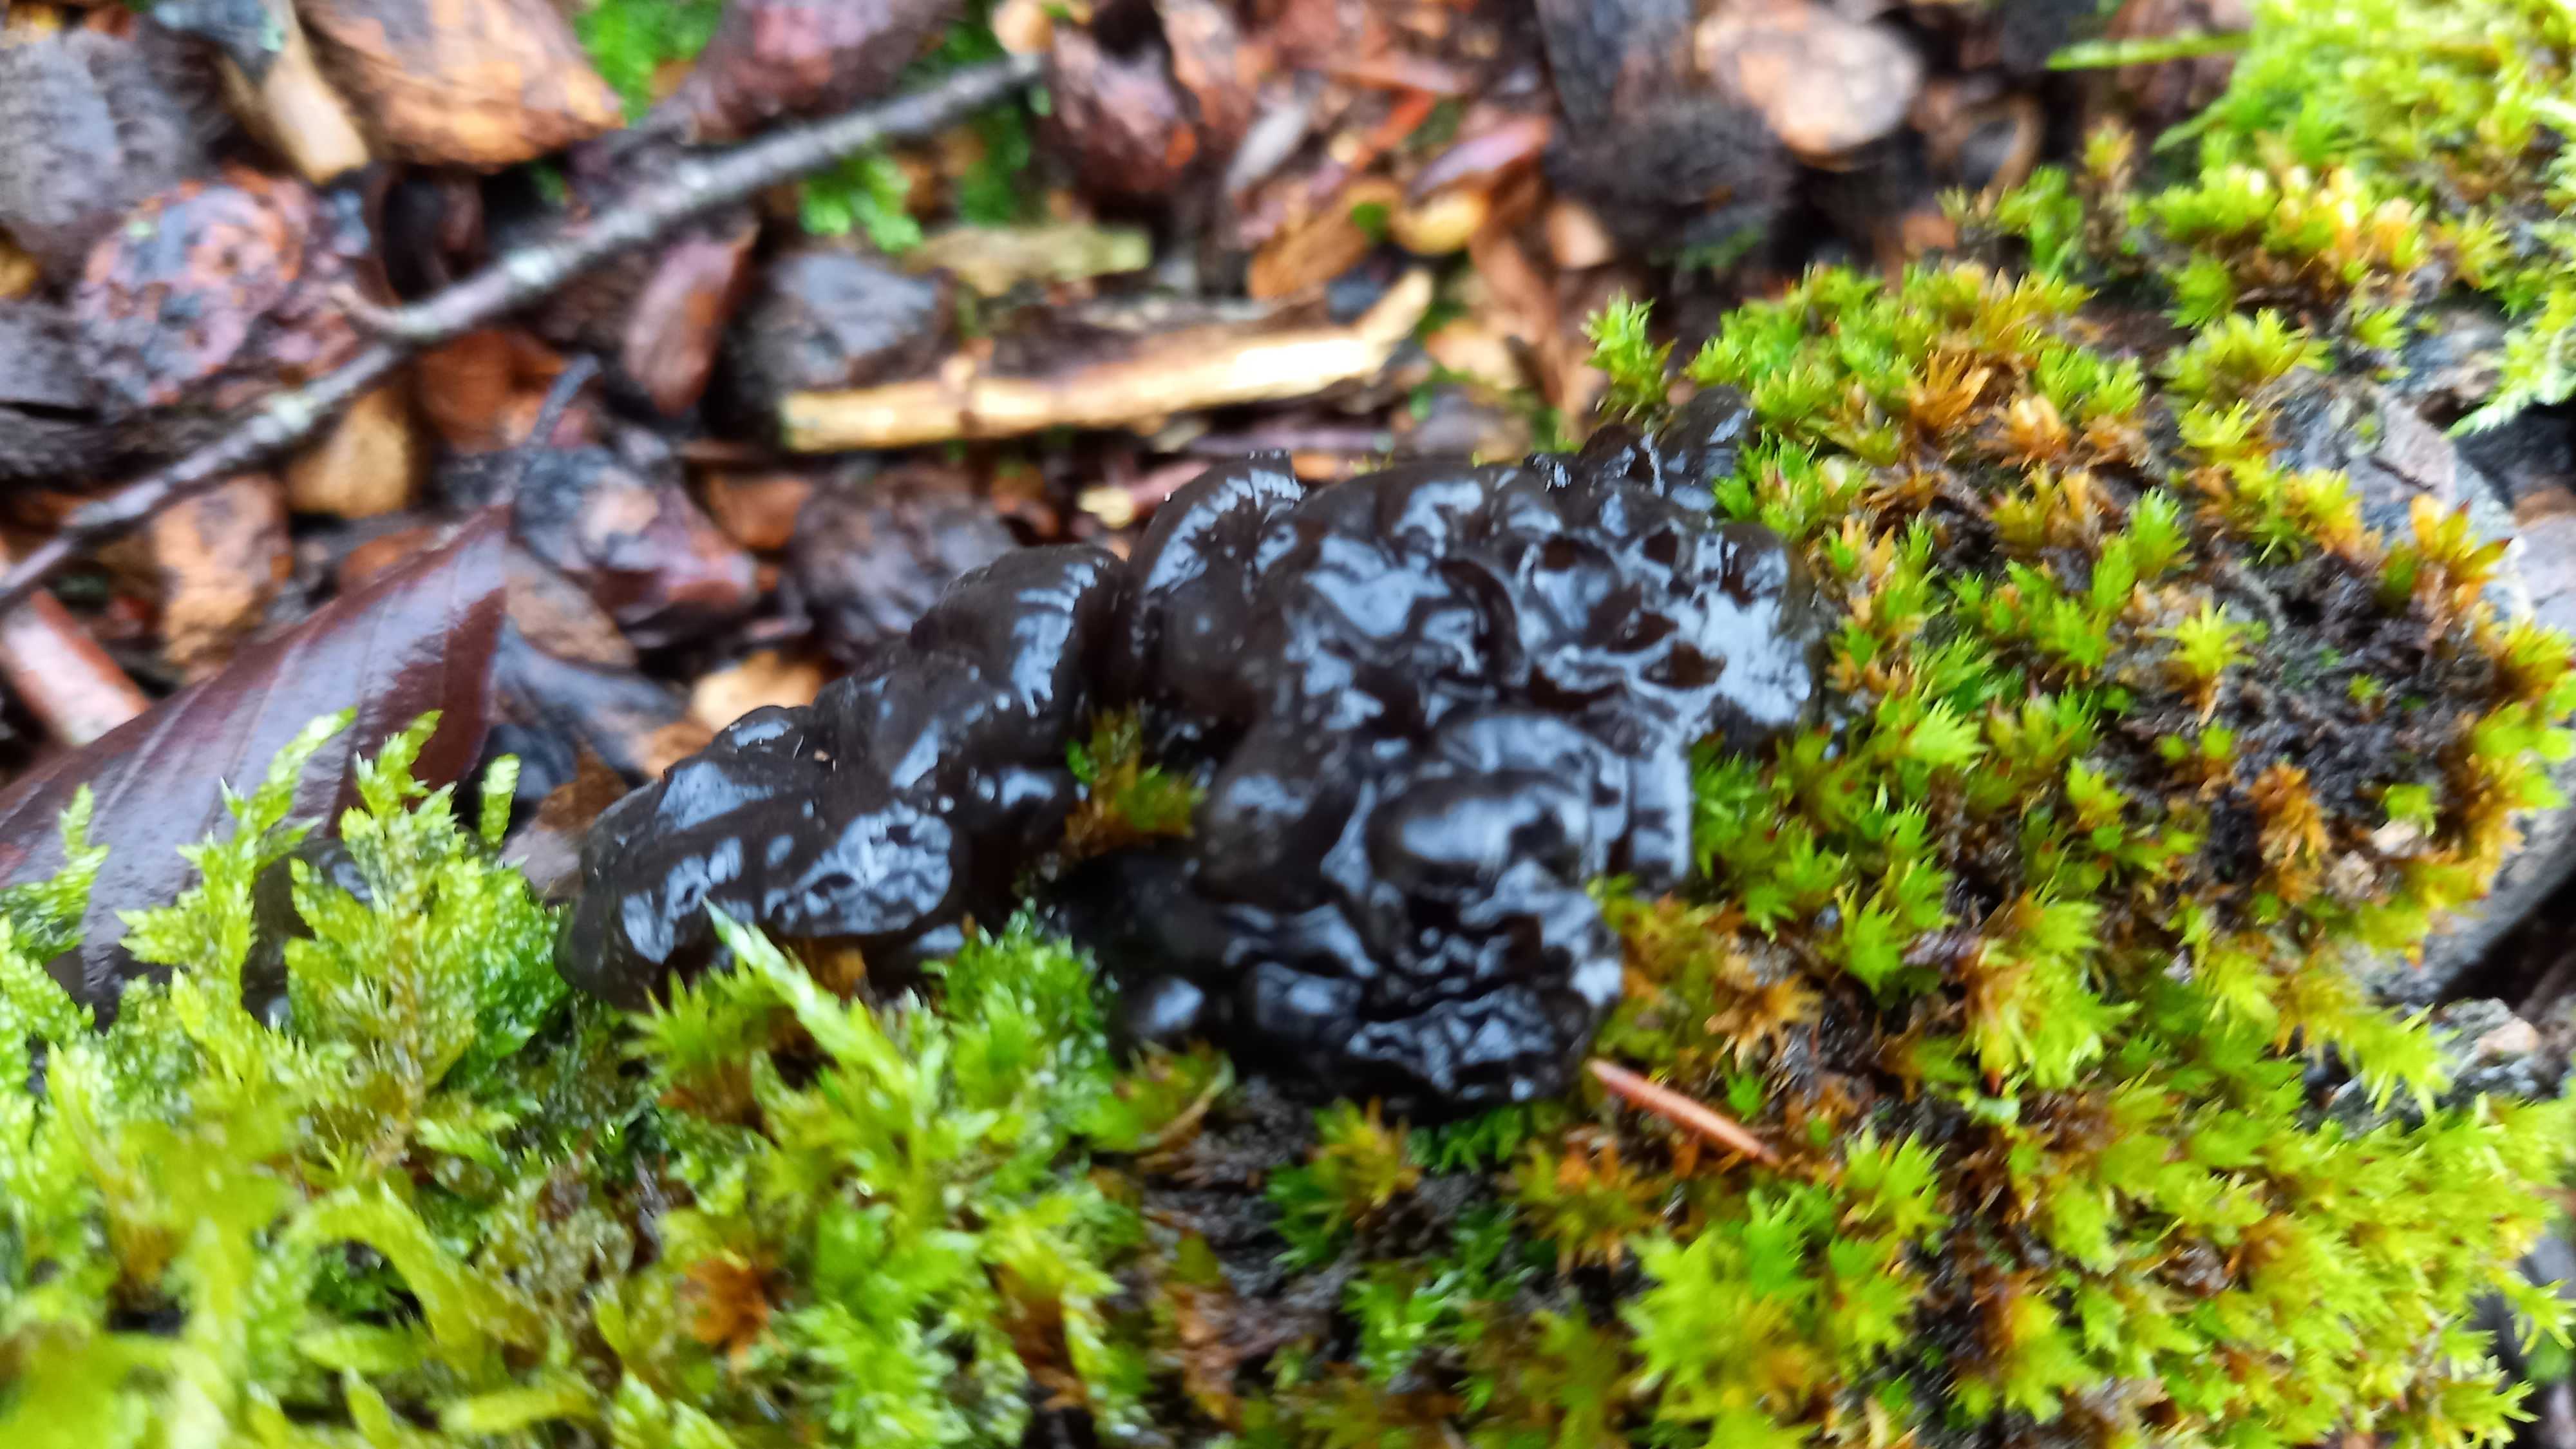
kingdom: Fungi
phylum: Basidiomycota
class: Agaricomycetes
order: Auriculariales
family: Auriculariaceae
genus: Exidia
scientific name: Exidia nigricans
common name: almindelig bævretop
